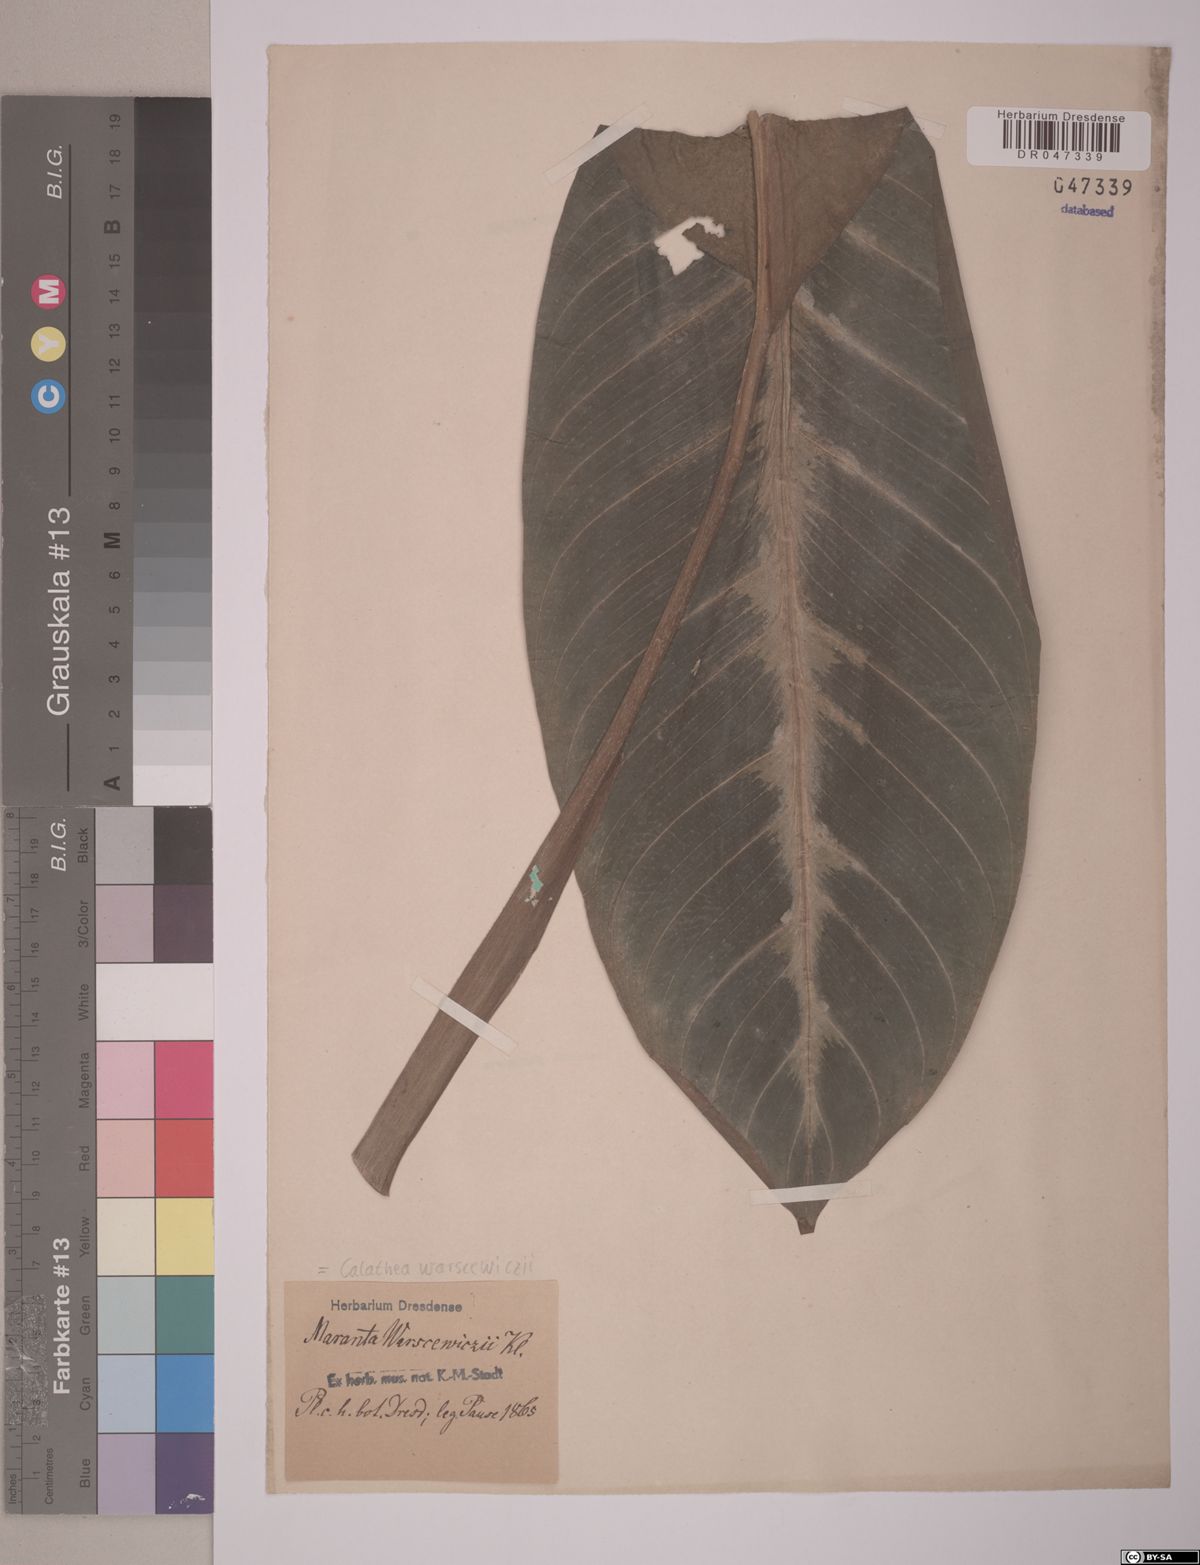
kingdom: Plantae
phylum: Tracheophyta
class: Liliopsida
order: Zingiberales
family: Marantaceae
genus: Goeppertia
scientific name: Goeppertia warszewiczii
